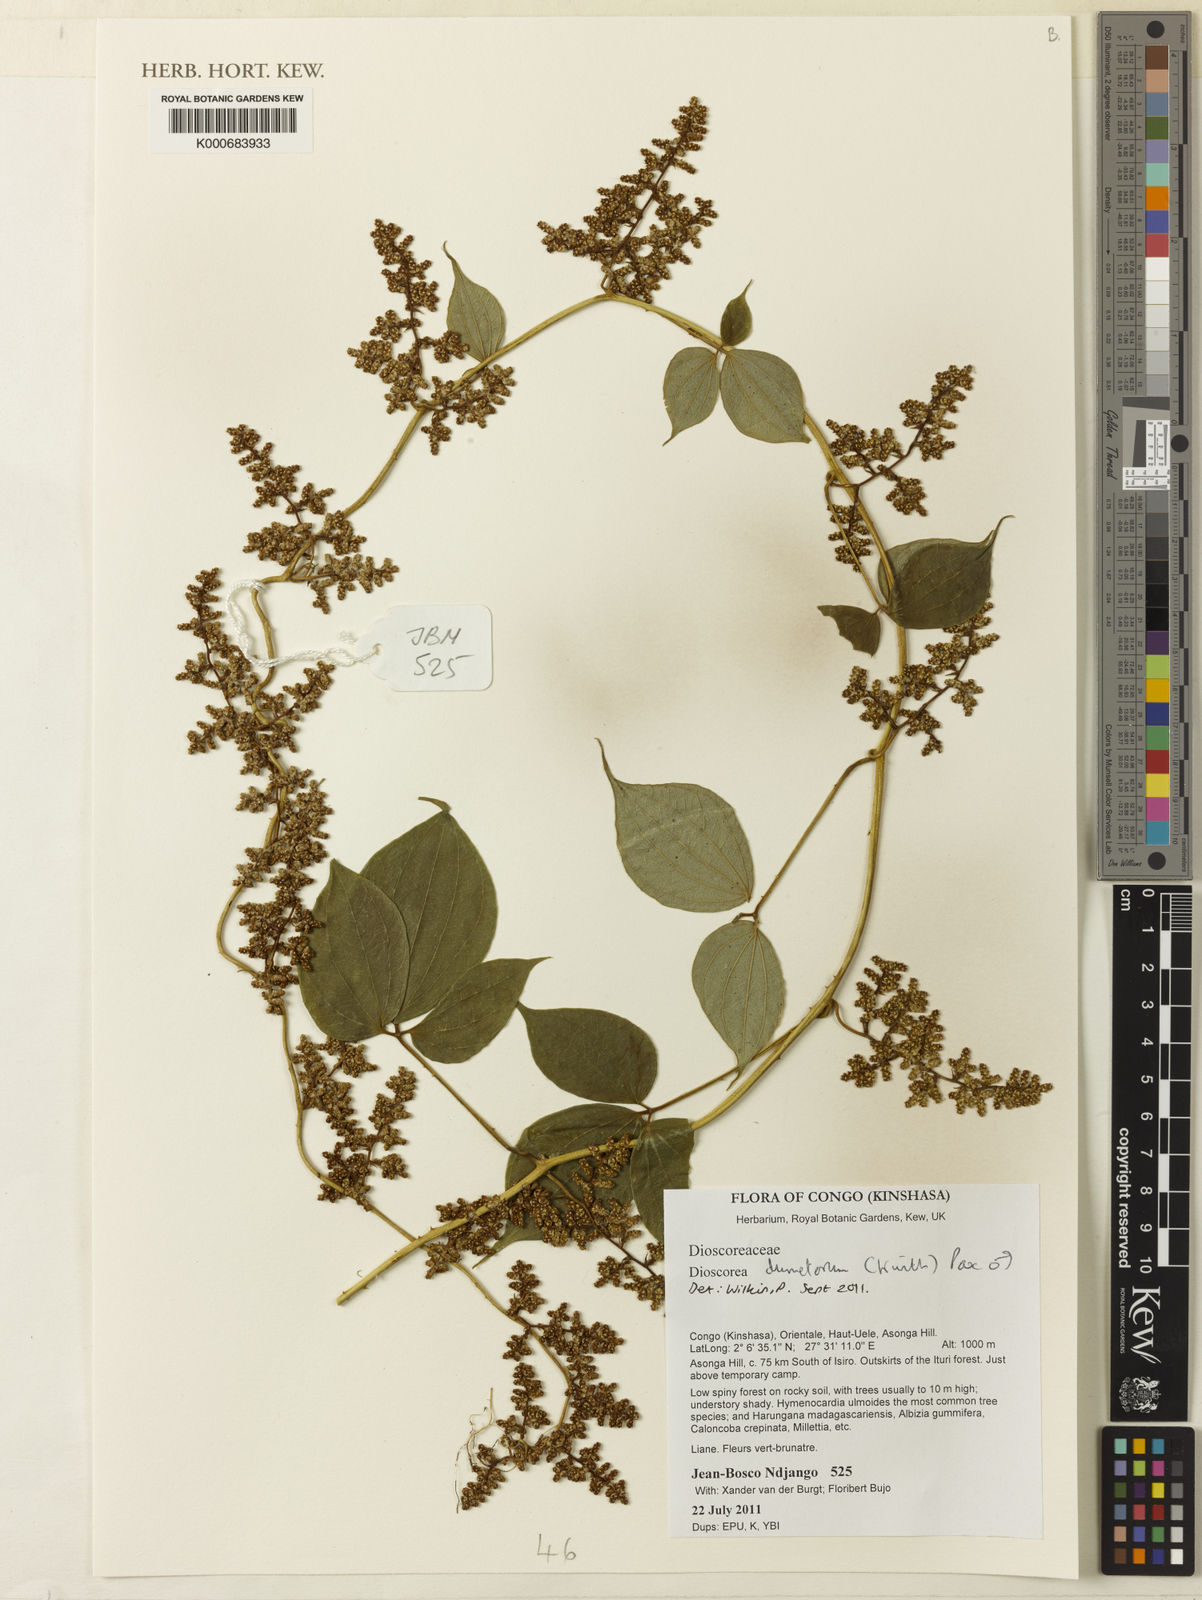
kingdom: Plantae
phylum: Tracheophyta
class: Liliopsida
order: Dioscoreales
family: Dioscoreaceae
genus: Dioscorea
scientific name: Dioscorea dumetorum
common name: African bitter yam
